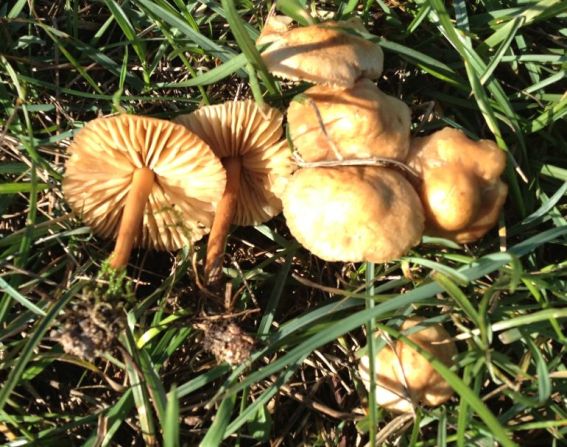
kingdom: Fungi
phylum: Basidiomycota
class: Agaricomycetes
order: Agaricales
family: Marasmiaceae
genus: Marasmius
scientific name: Marasmius oreades
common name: elledans-bruskhat
